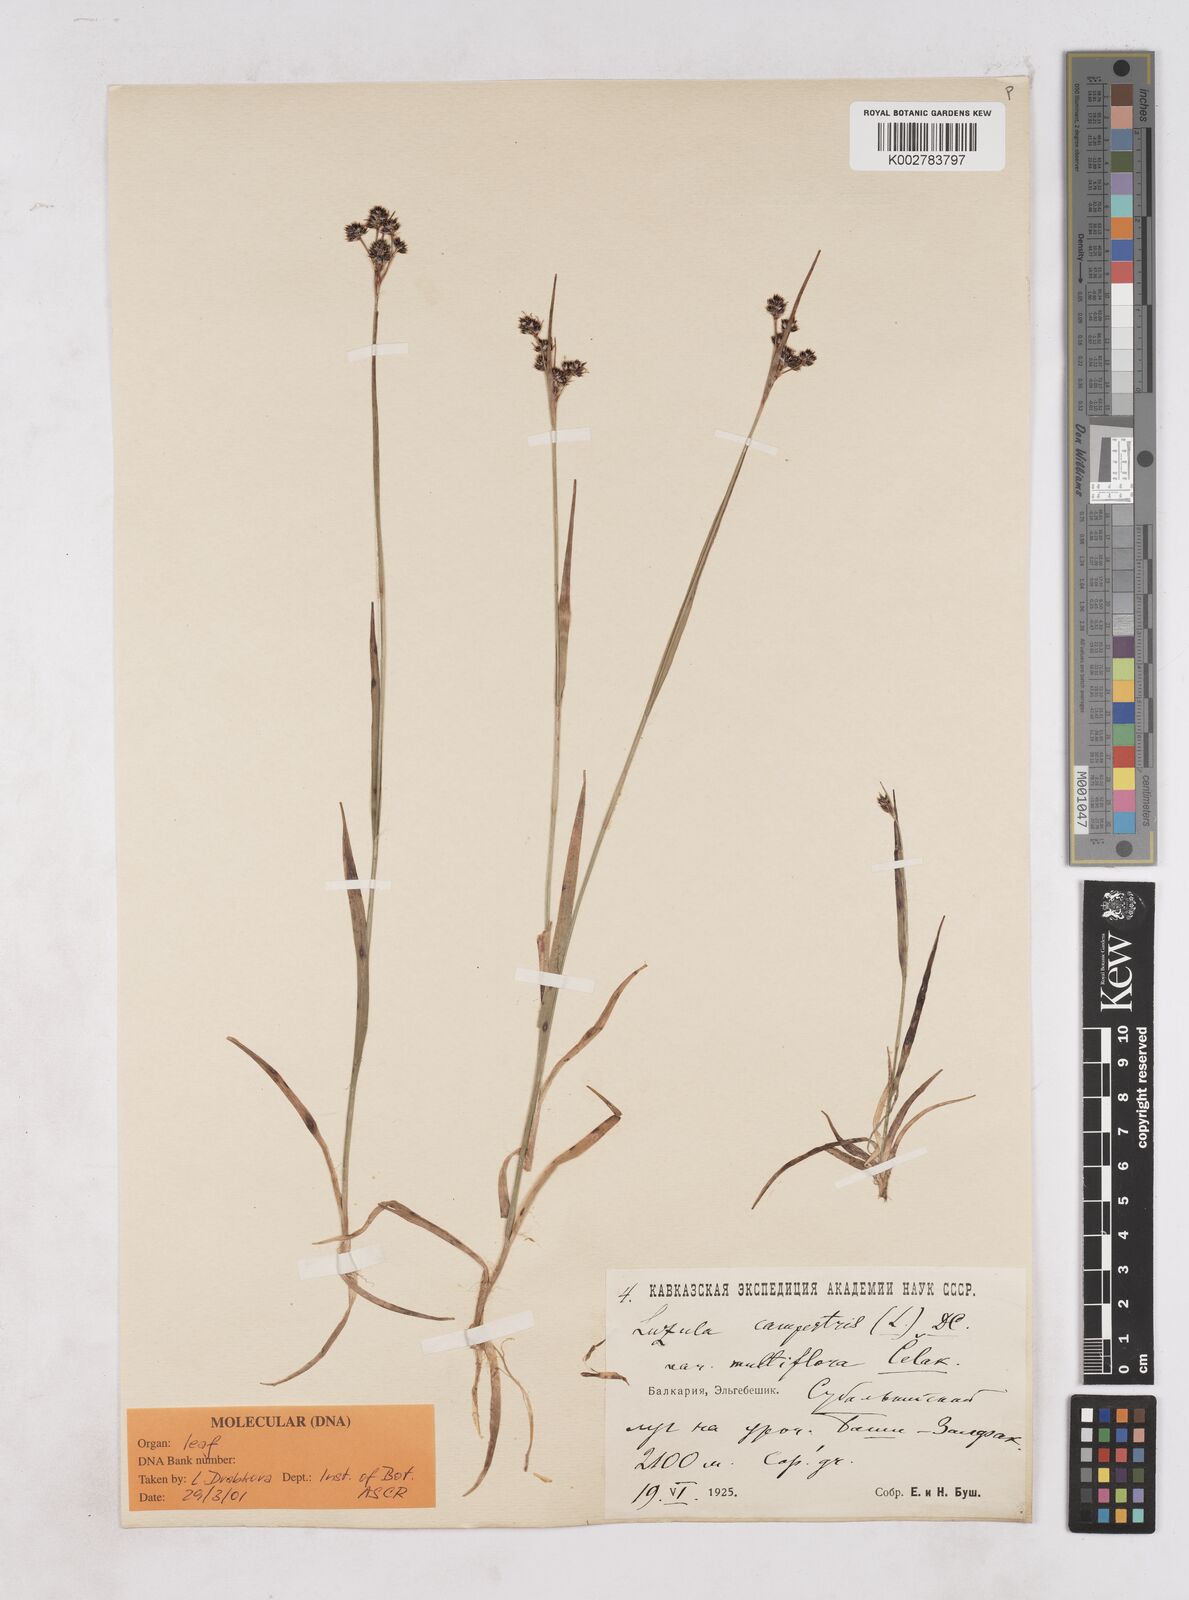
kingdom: Plantae
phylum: Tracheophyta
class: Liliopsida
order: Poales
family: Juncaceae
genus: Luzula
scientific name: Luzula campestris
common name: Field wood-rush
